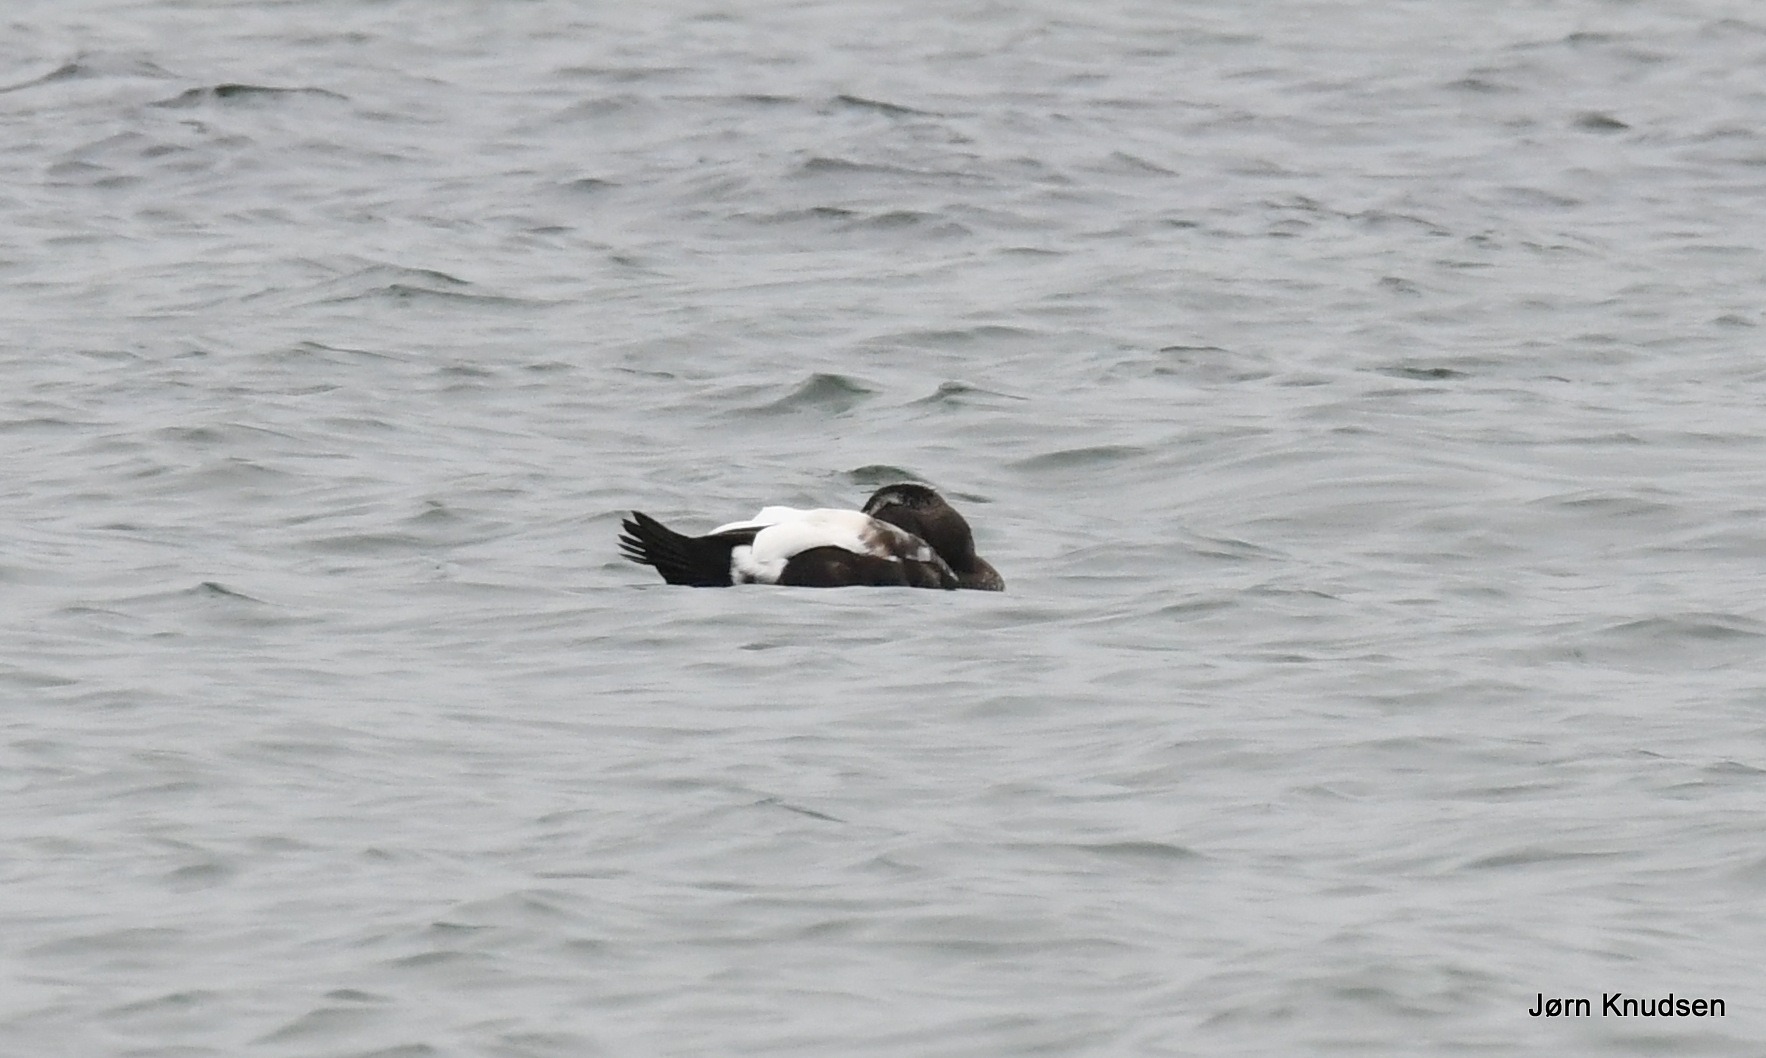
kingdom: Animalia
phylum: Chordata
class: Aves
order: Anseriformes
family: Anatidae
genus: Somateria
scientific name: Somateria mollissima
